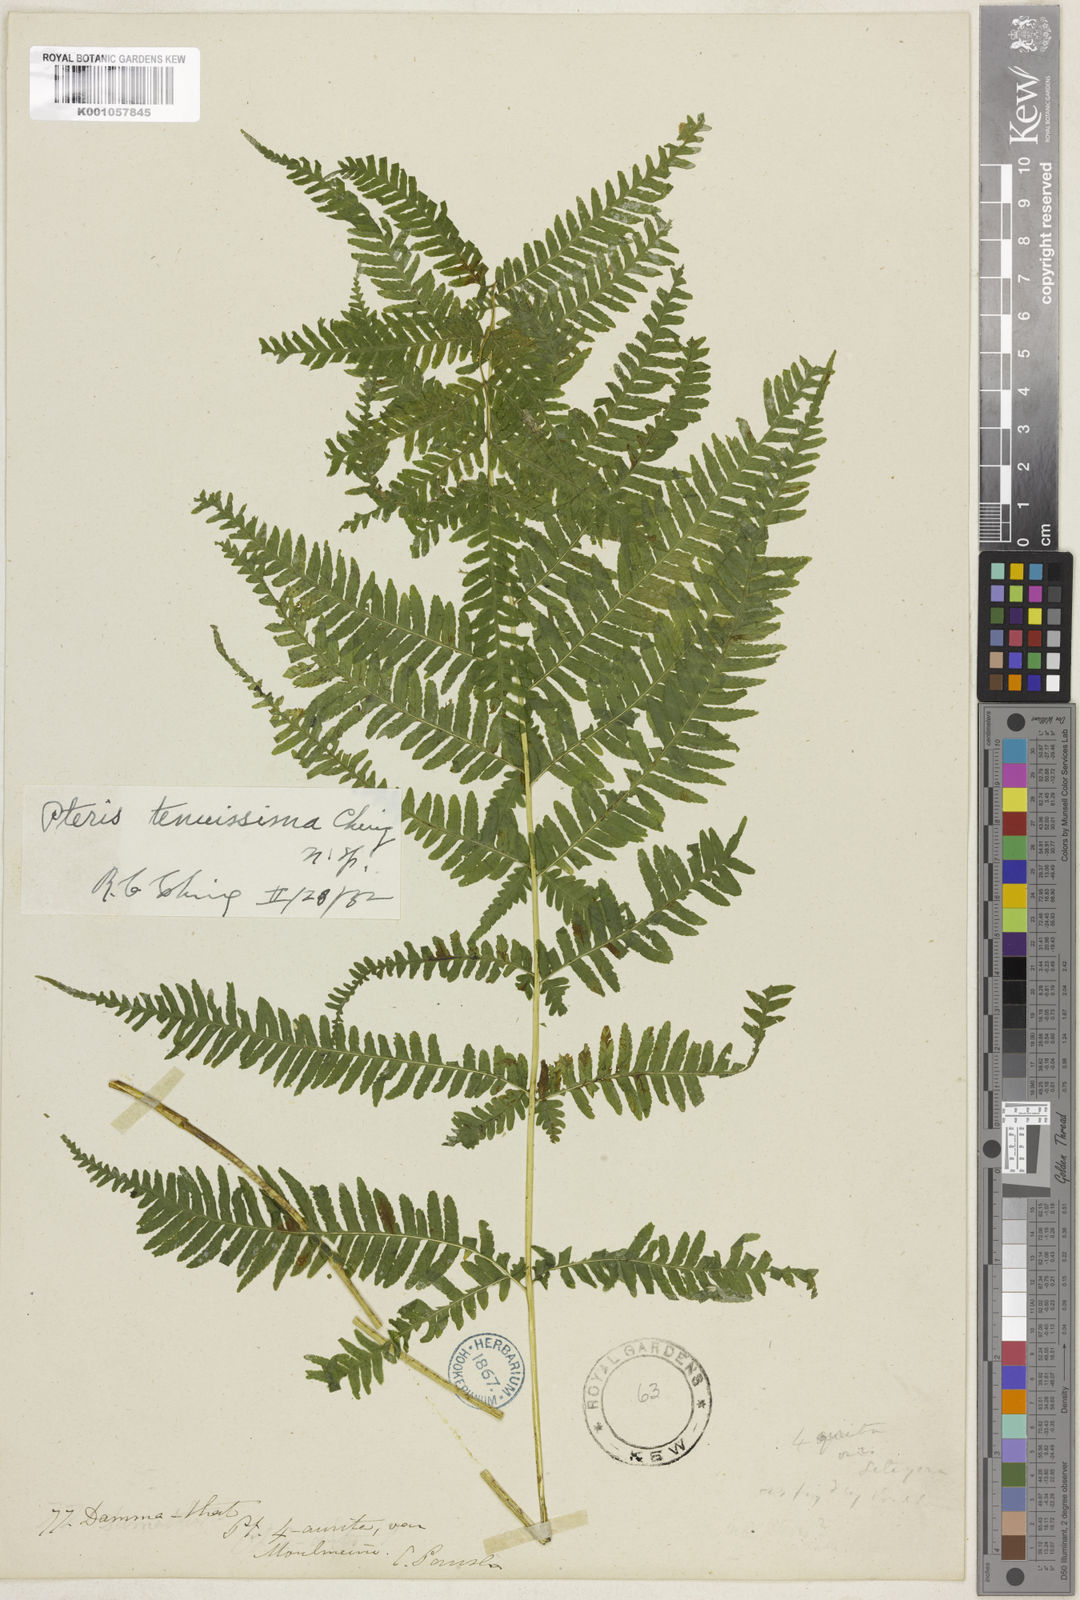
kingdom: Plantae
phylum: Tracheophyta
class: Polypodiopsida
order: Polypodiales
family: Pteridaceae
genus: Pteris
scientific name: Pteris tenuissima
